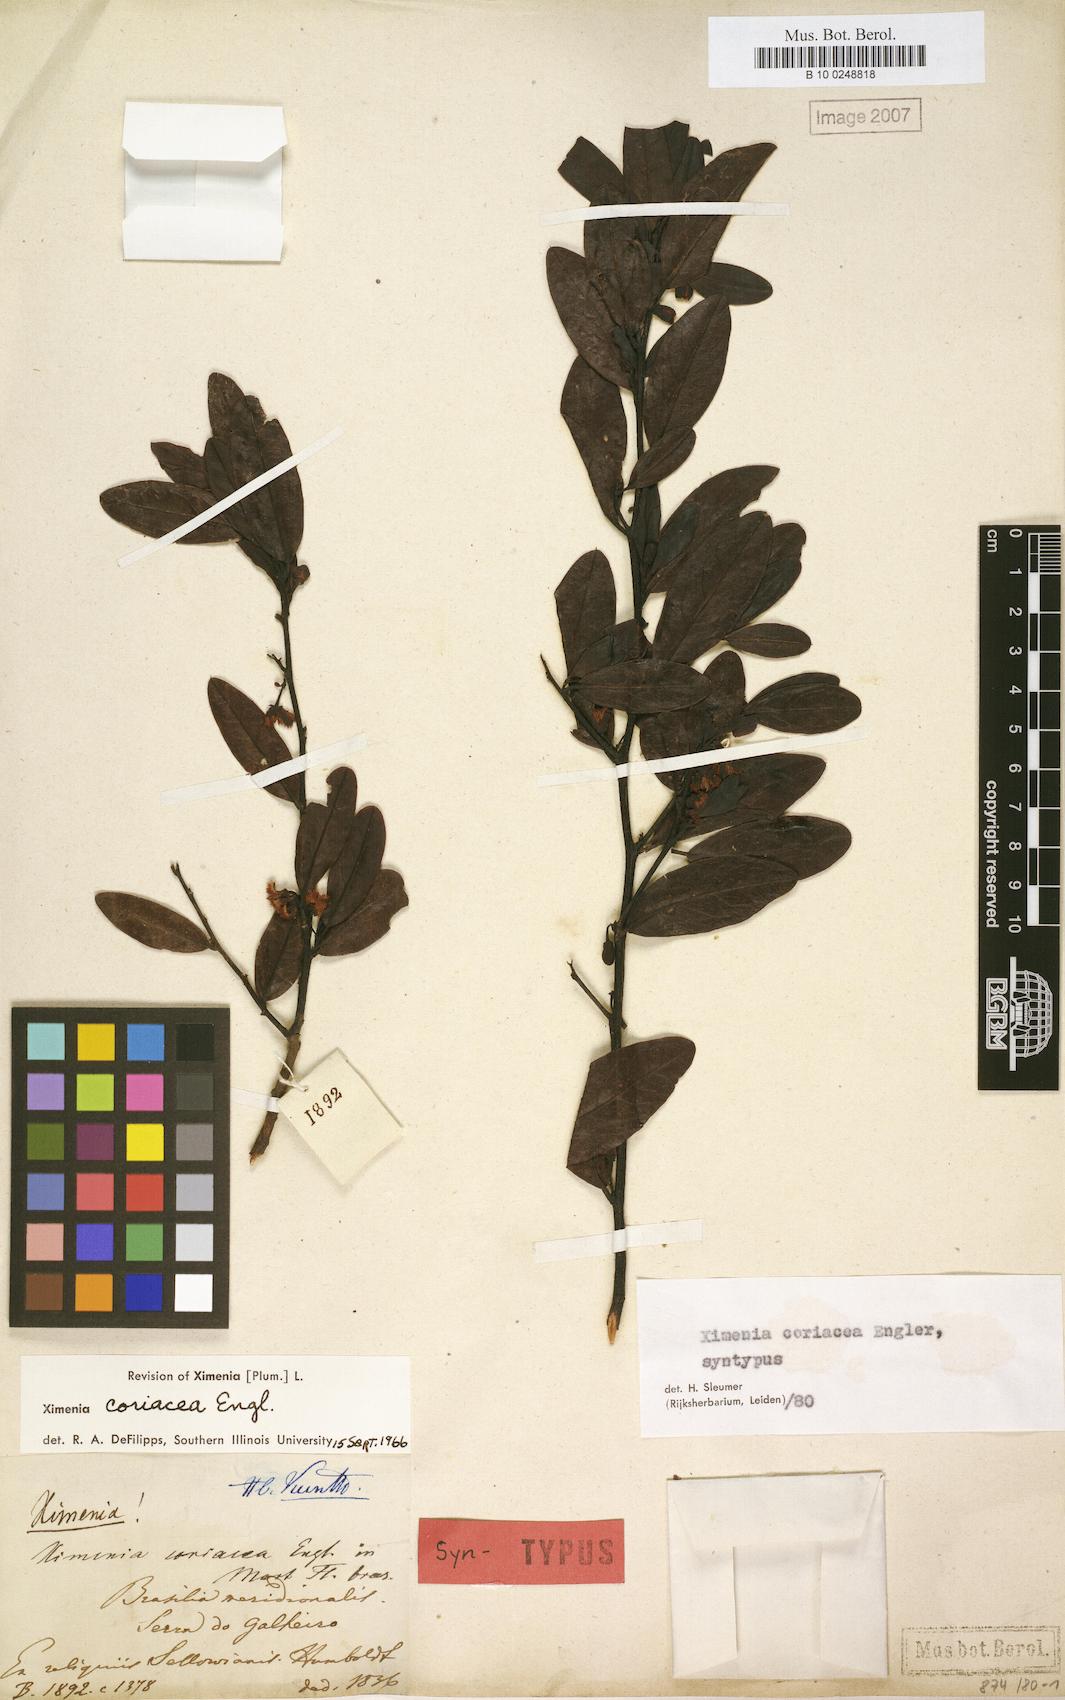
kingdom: Plantae
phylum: Tracheophyta
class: Magnoliopsida
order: Santalales
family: Ximeniaceae
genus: Ximenia
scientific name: Ximenia coriacea
